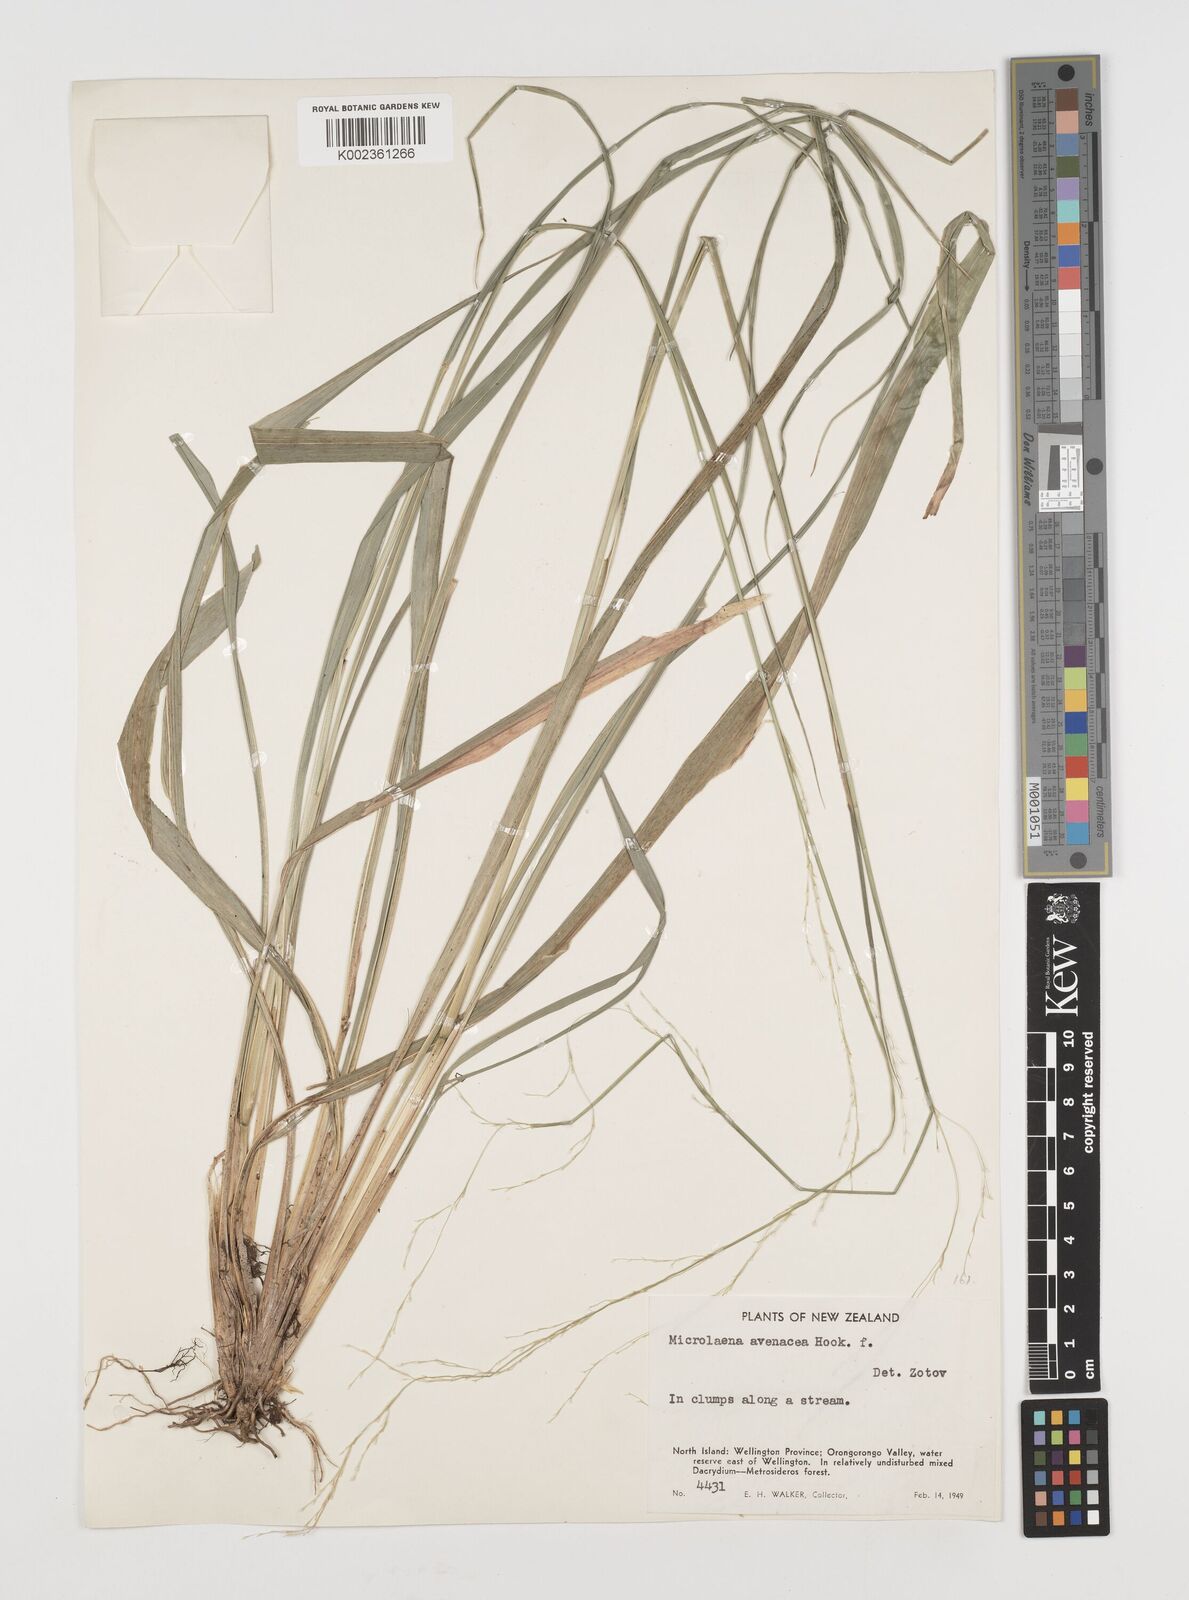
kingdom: Plantae
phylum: Tracheophyta
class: Liliopsida
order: Poales
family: Poaceae
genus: Ehrharta
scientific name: Ehrharta diplax
